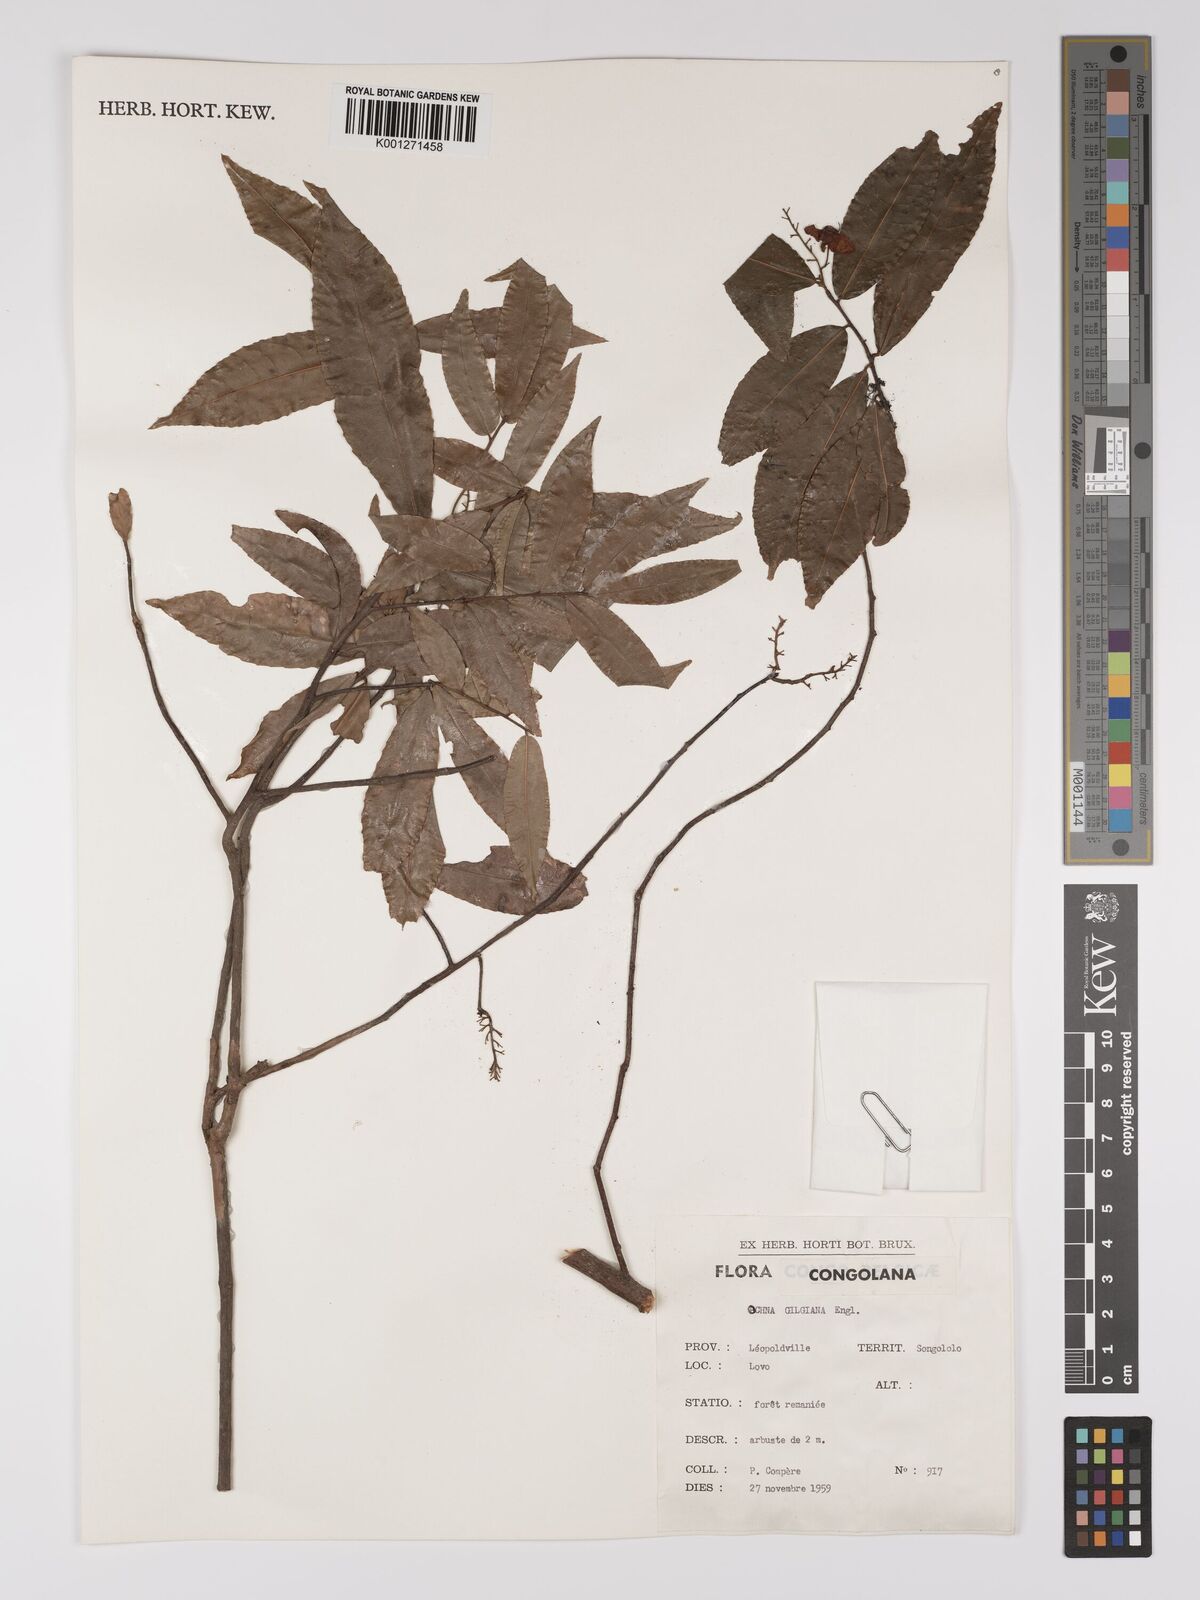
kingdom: Plantae
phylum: Tracheophyta
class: Magnoliopsida
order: Malpighiales
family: Ochnaceae
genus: Ochna
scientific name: Ochna membranacea
